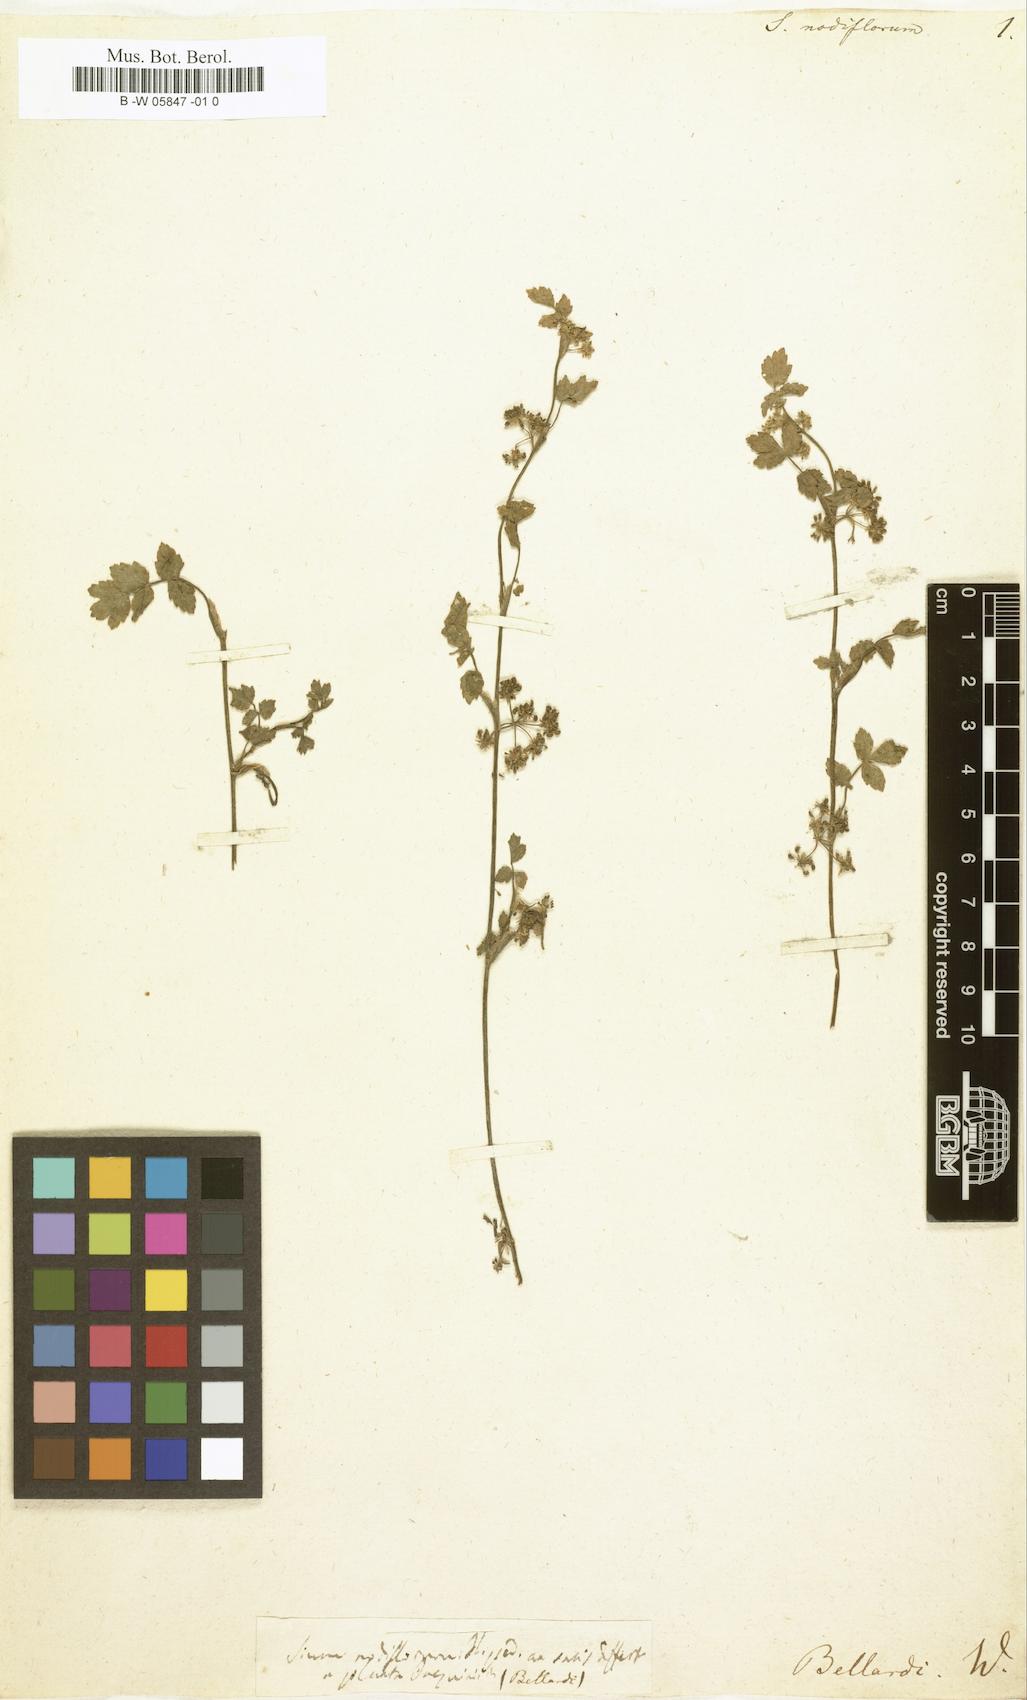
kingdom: Plantae
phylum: Tracheophyta
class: Magnoliopsida
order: Apiales
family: Apiaceae
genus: Helosciadium
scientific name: Helosciadium nodiflorum
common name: Fool's-watercress
